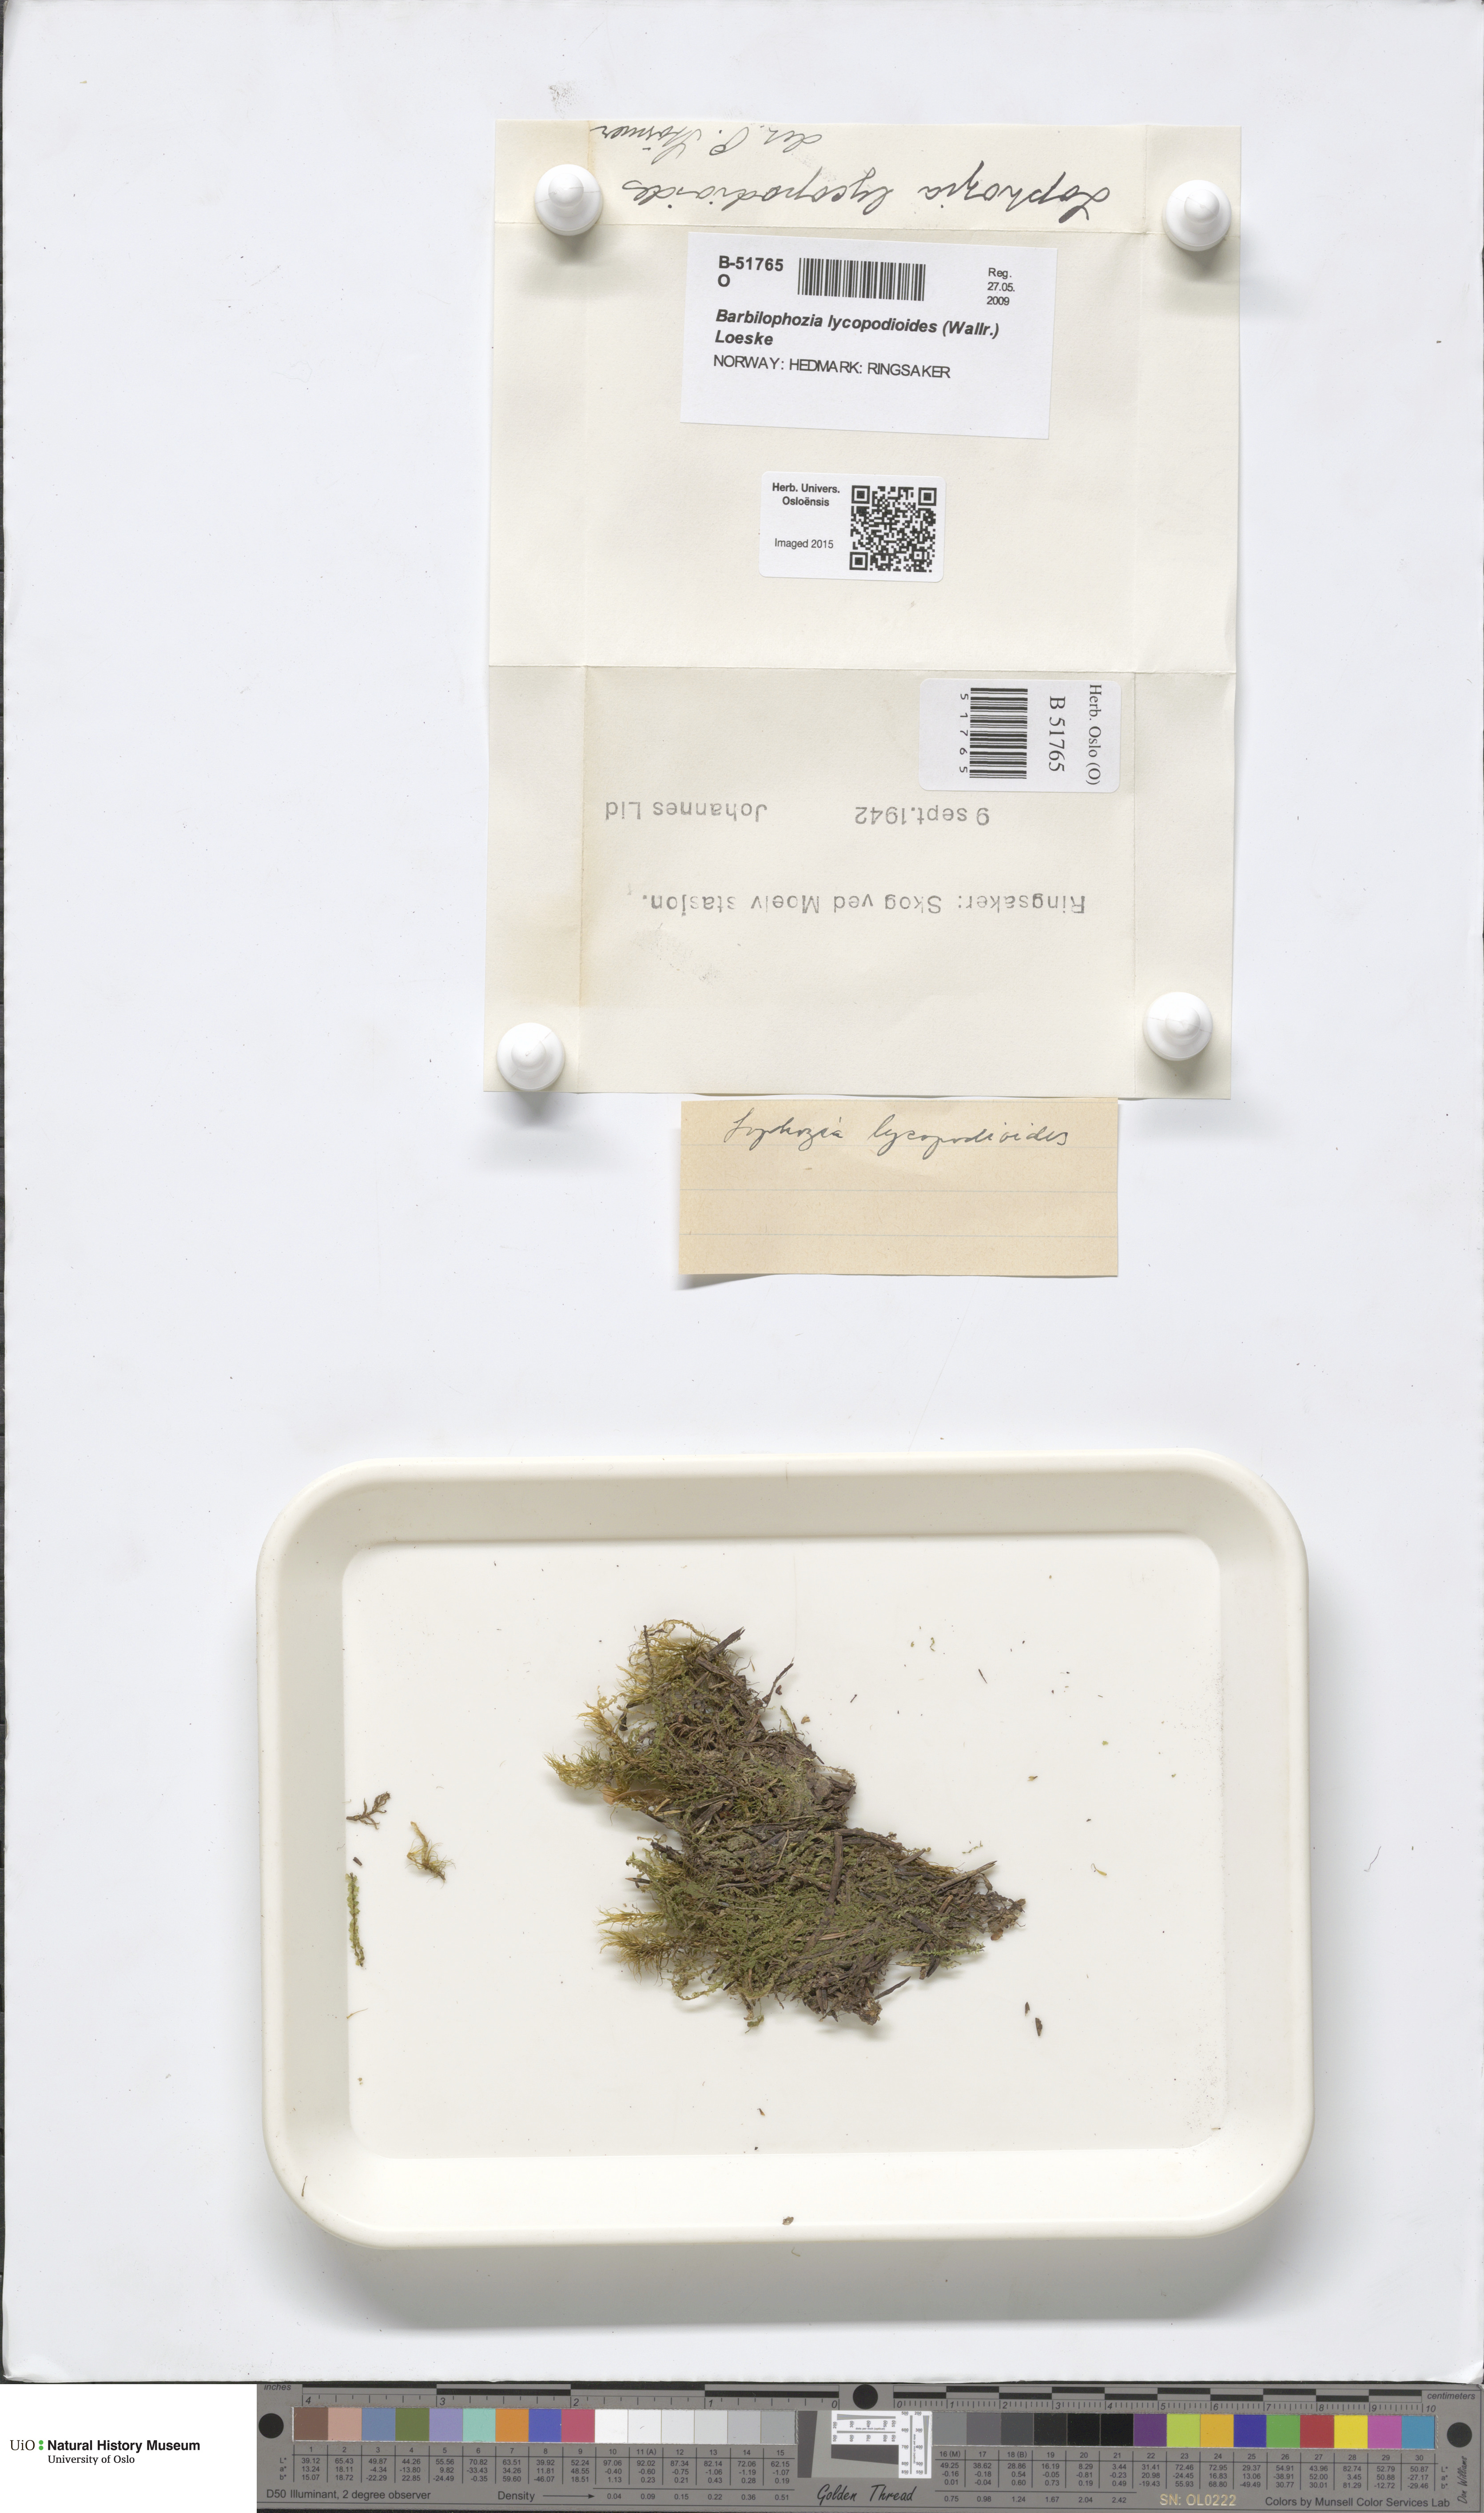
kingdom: Plantae
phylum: Marchantiophyta
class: Jungermanniopsida
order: Jungermanniales
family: Anastrophyllaceae
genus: Barbilophozia
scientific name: Barbilophozia lycopodioides
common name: Greater pawwort
